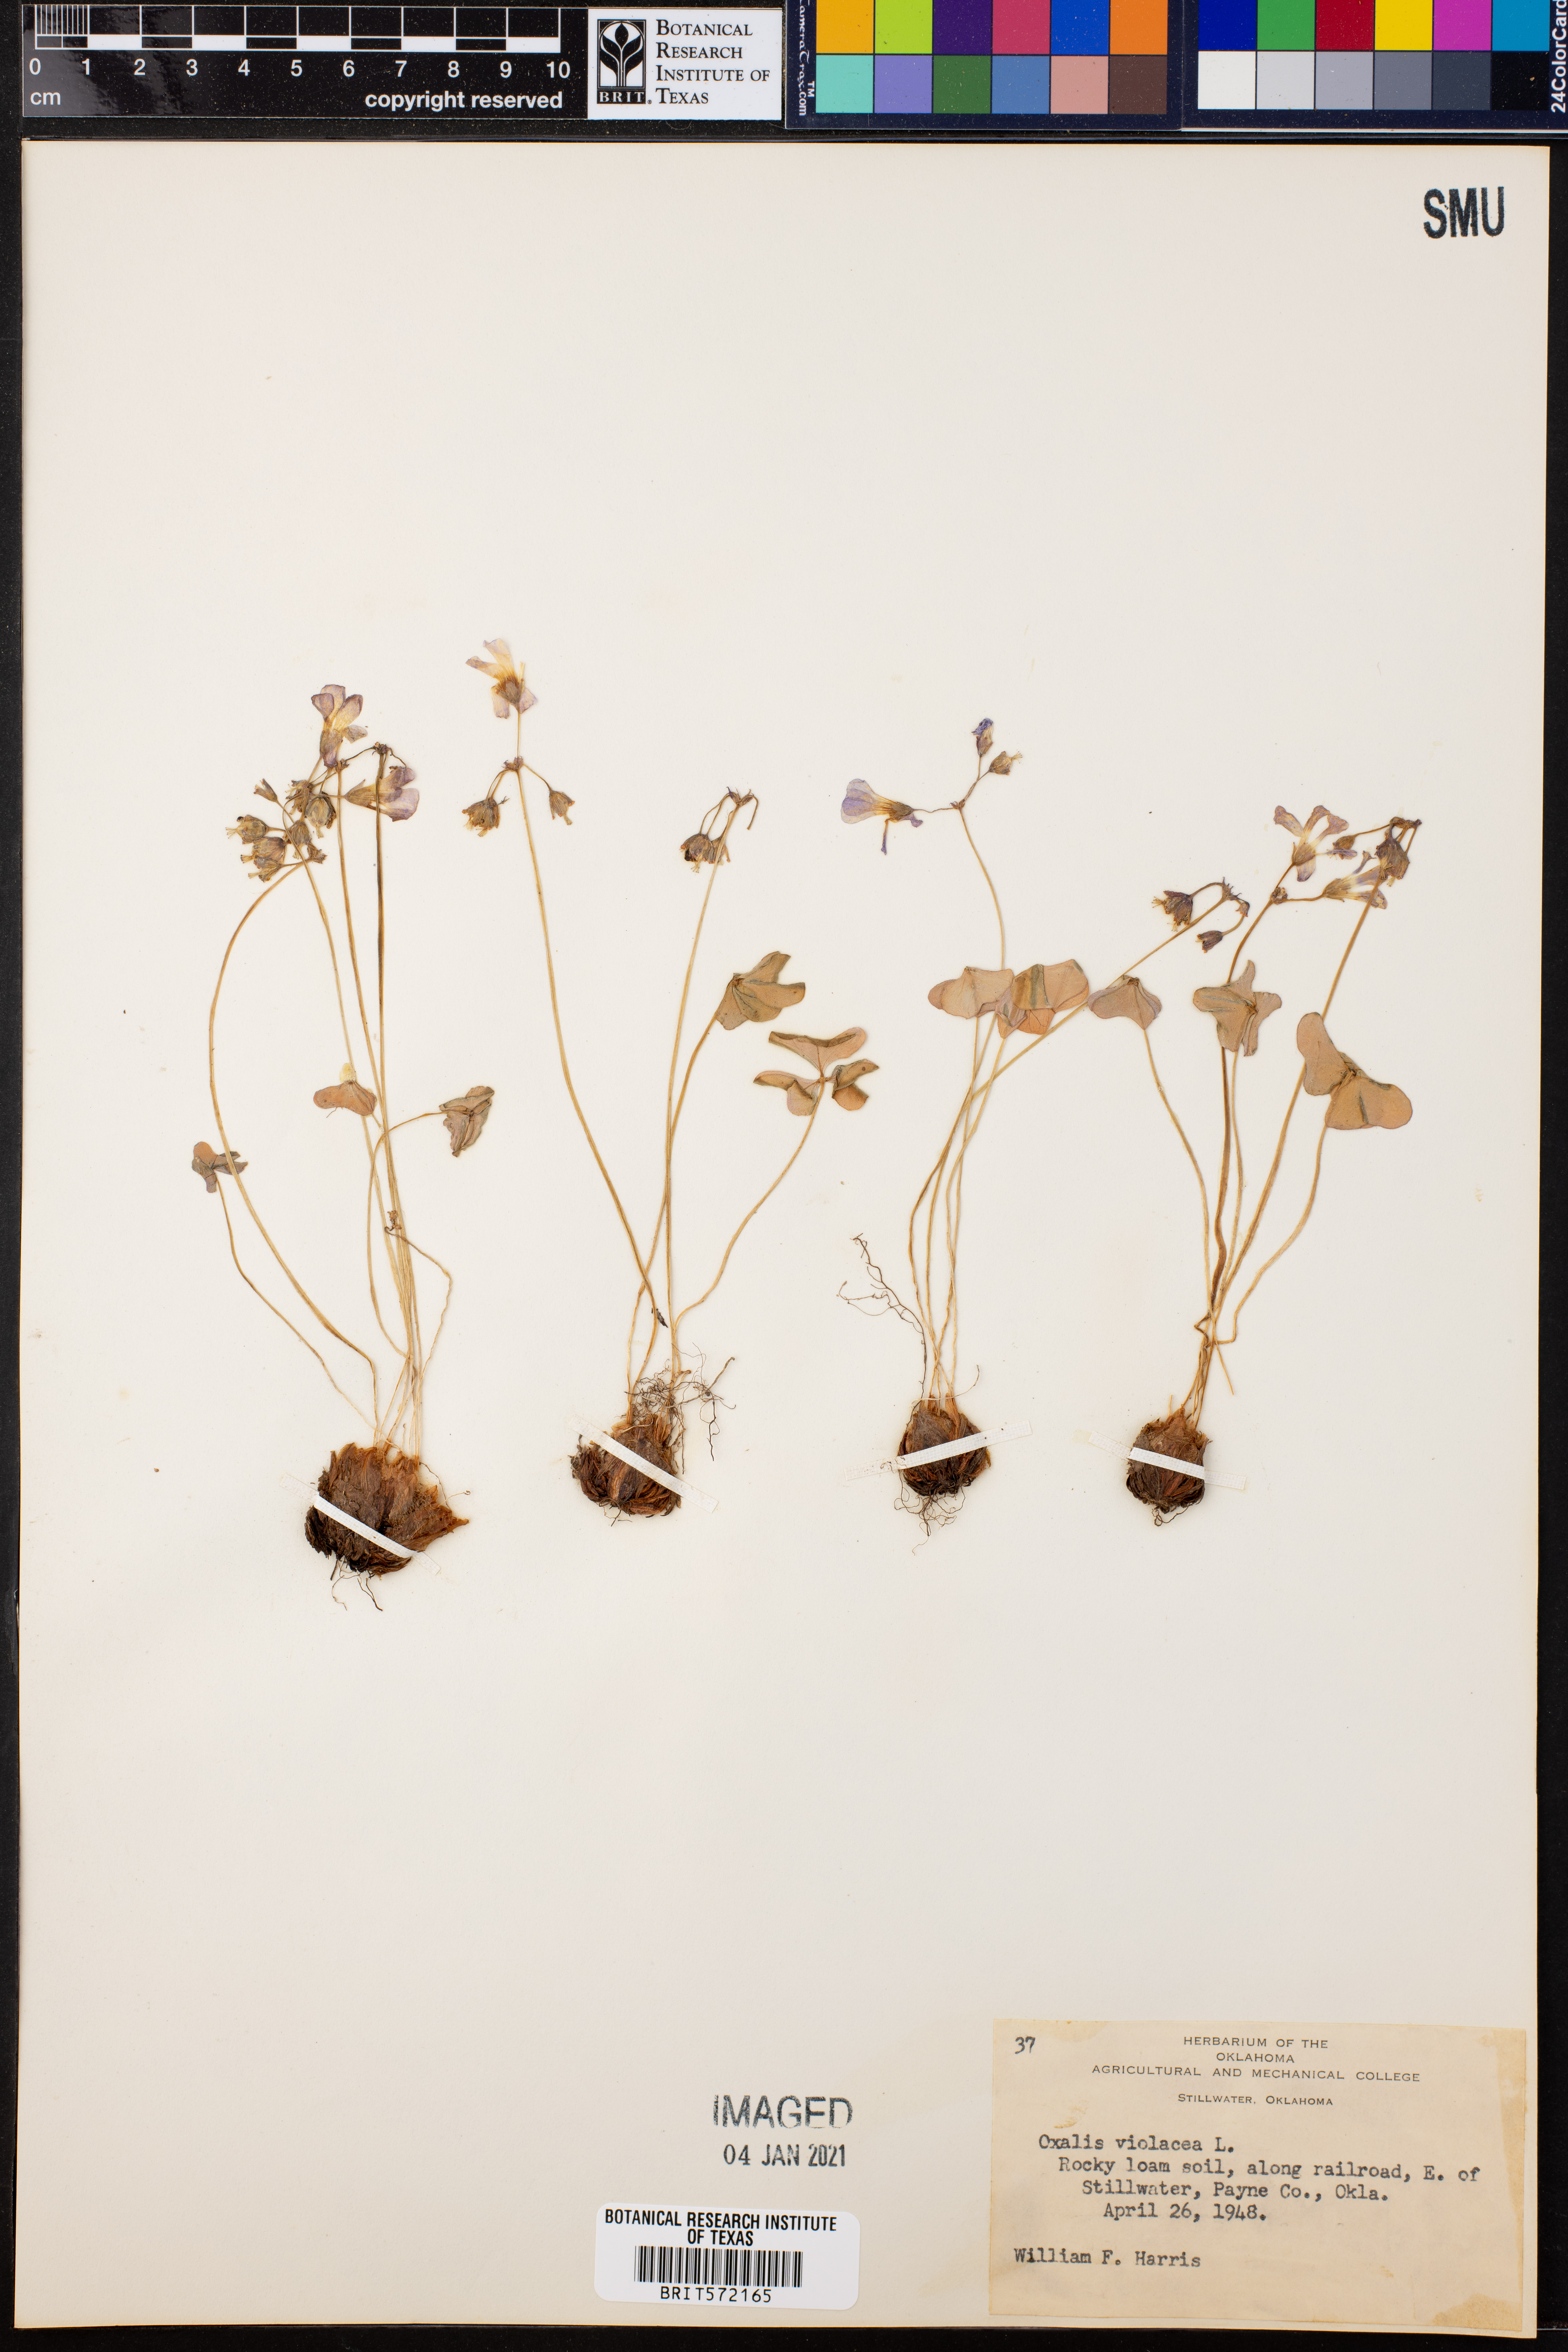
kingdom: Plantae
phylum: Tracheophyta
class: Magnoliopsida
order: Oxalidales
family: Oxalidaceae
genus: Oxalis
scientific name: Oxalis violacea
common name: Violet wood-sorrel
